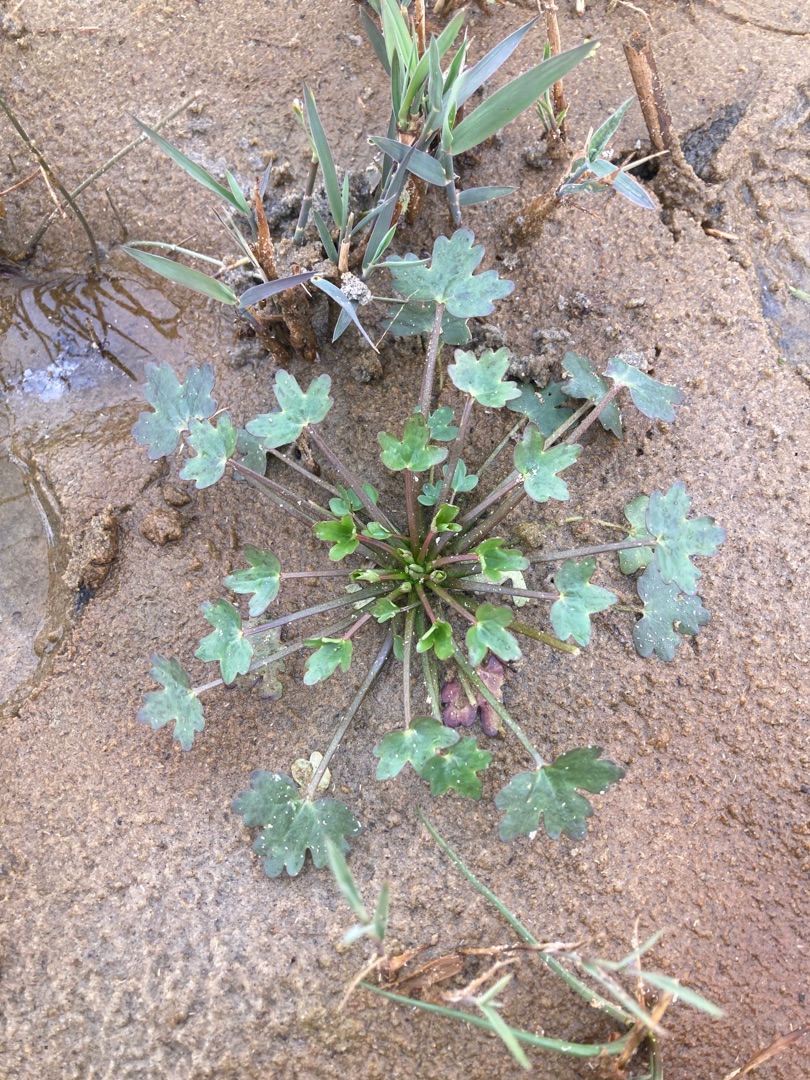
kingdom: Plantae
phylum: Tracheophyta
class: Magnoliopsida
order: Ranunculales
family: Ranunculaceae
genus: Ranunculus
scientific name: Ranunculus sceleratus
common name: Tigger-ranunkel
